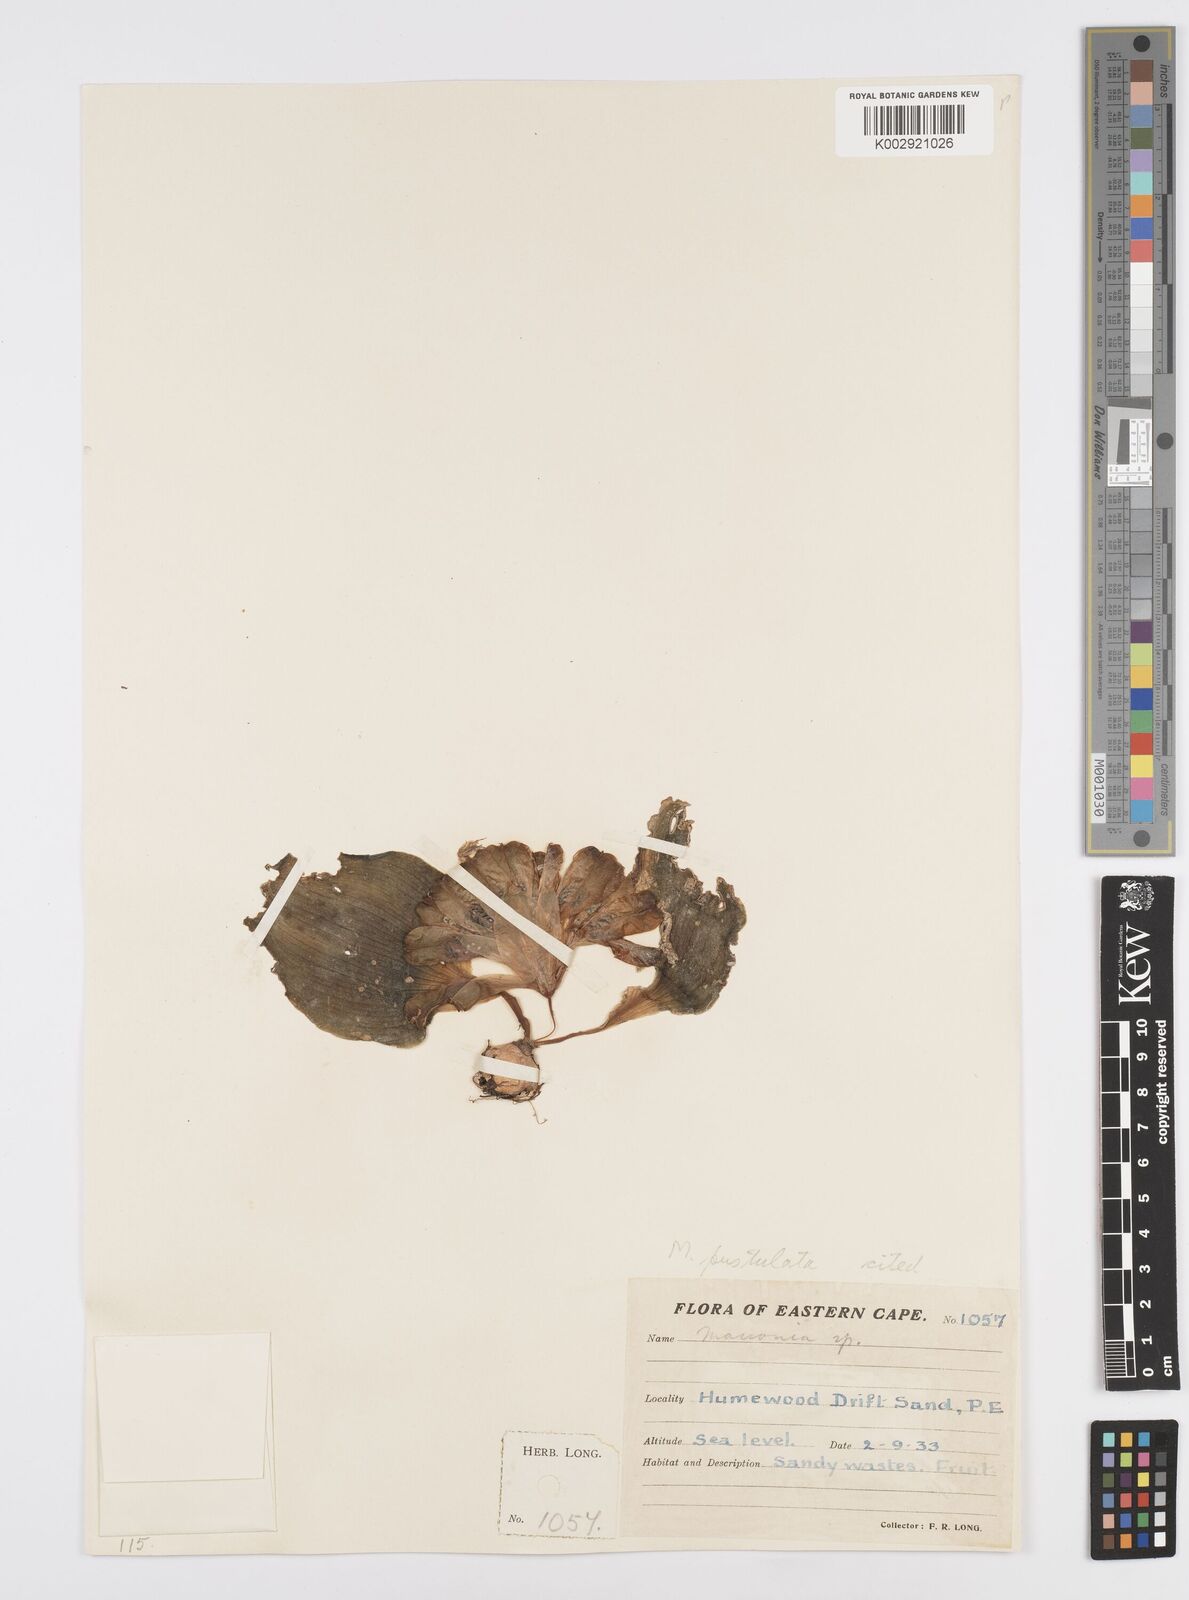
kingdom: Plantae
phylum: Tracheophyta
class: Liliopsida
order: Asparagales
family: Asparagaceae
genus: Massonia
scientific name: Massonia pustulata
